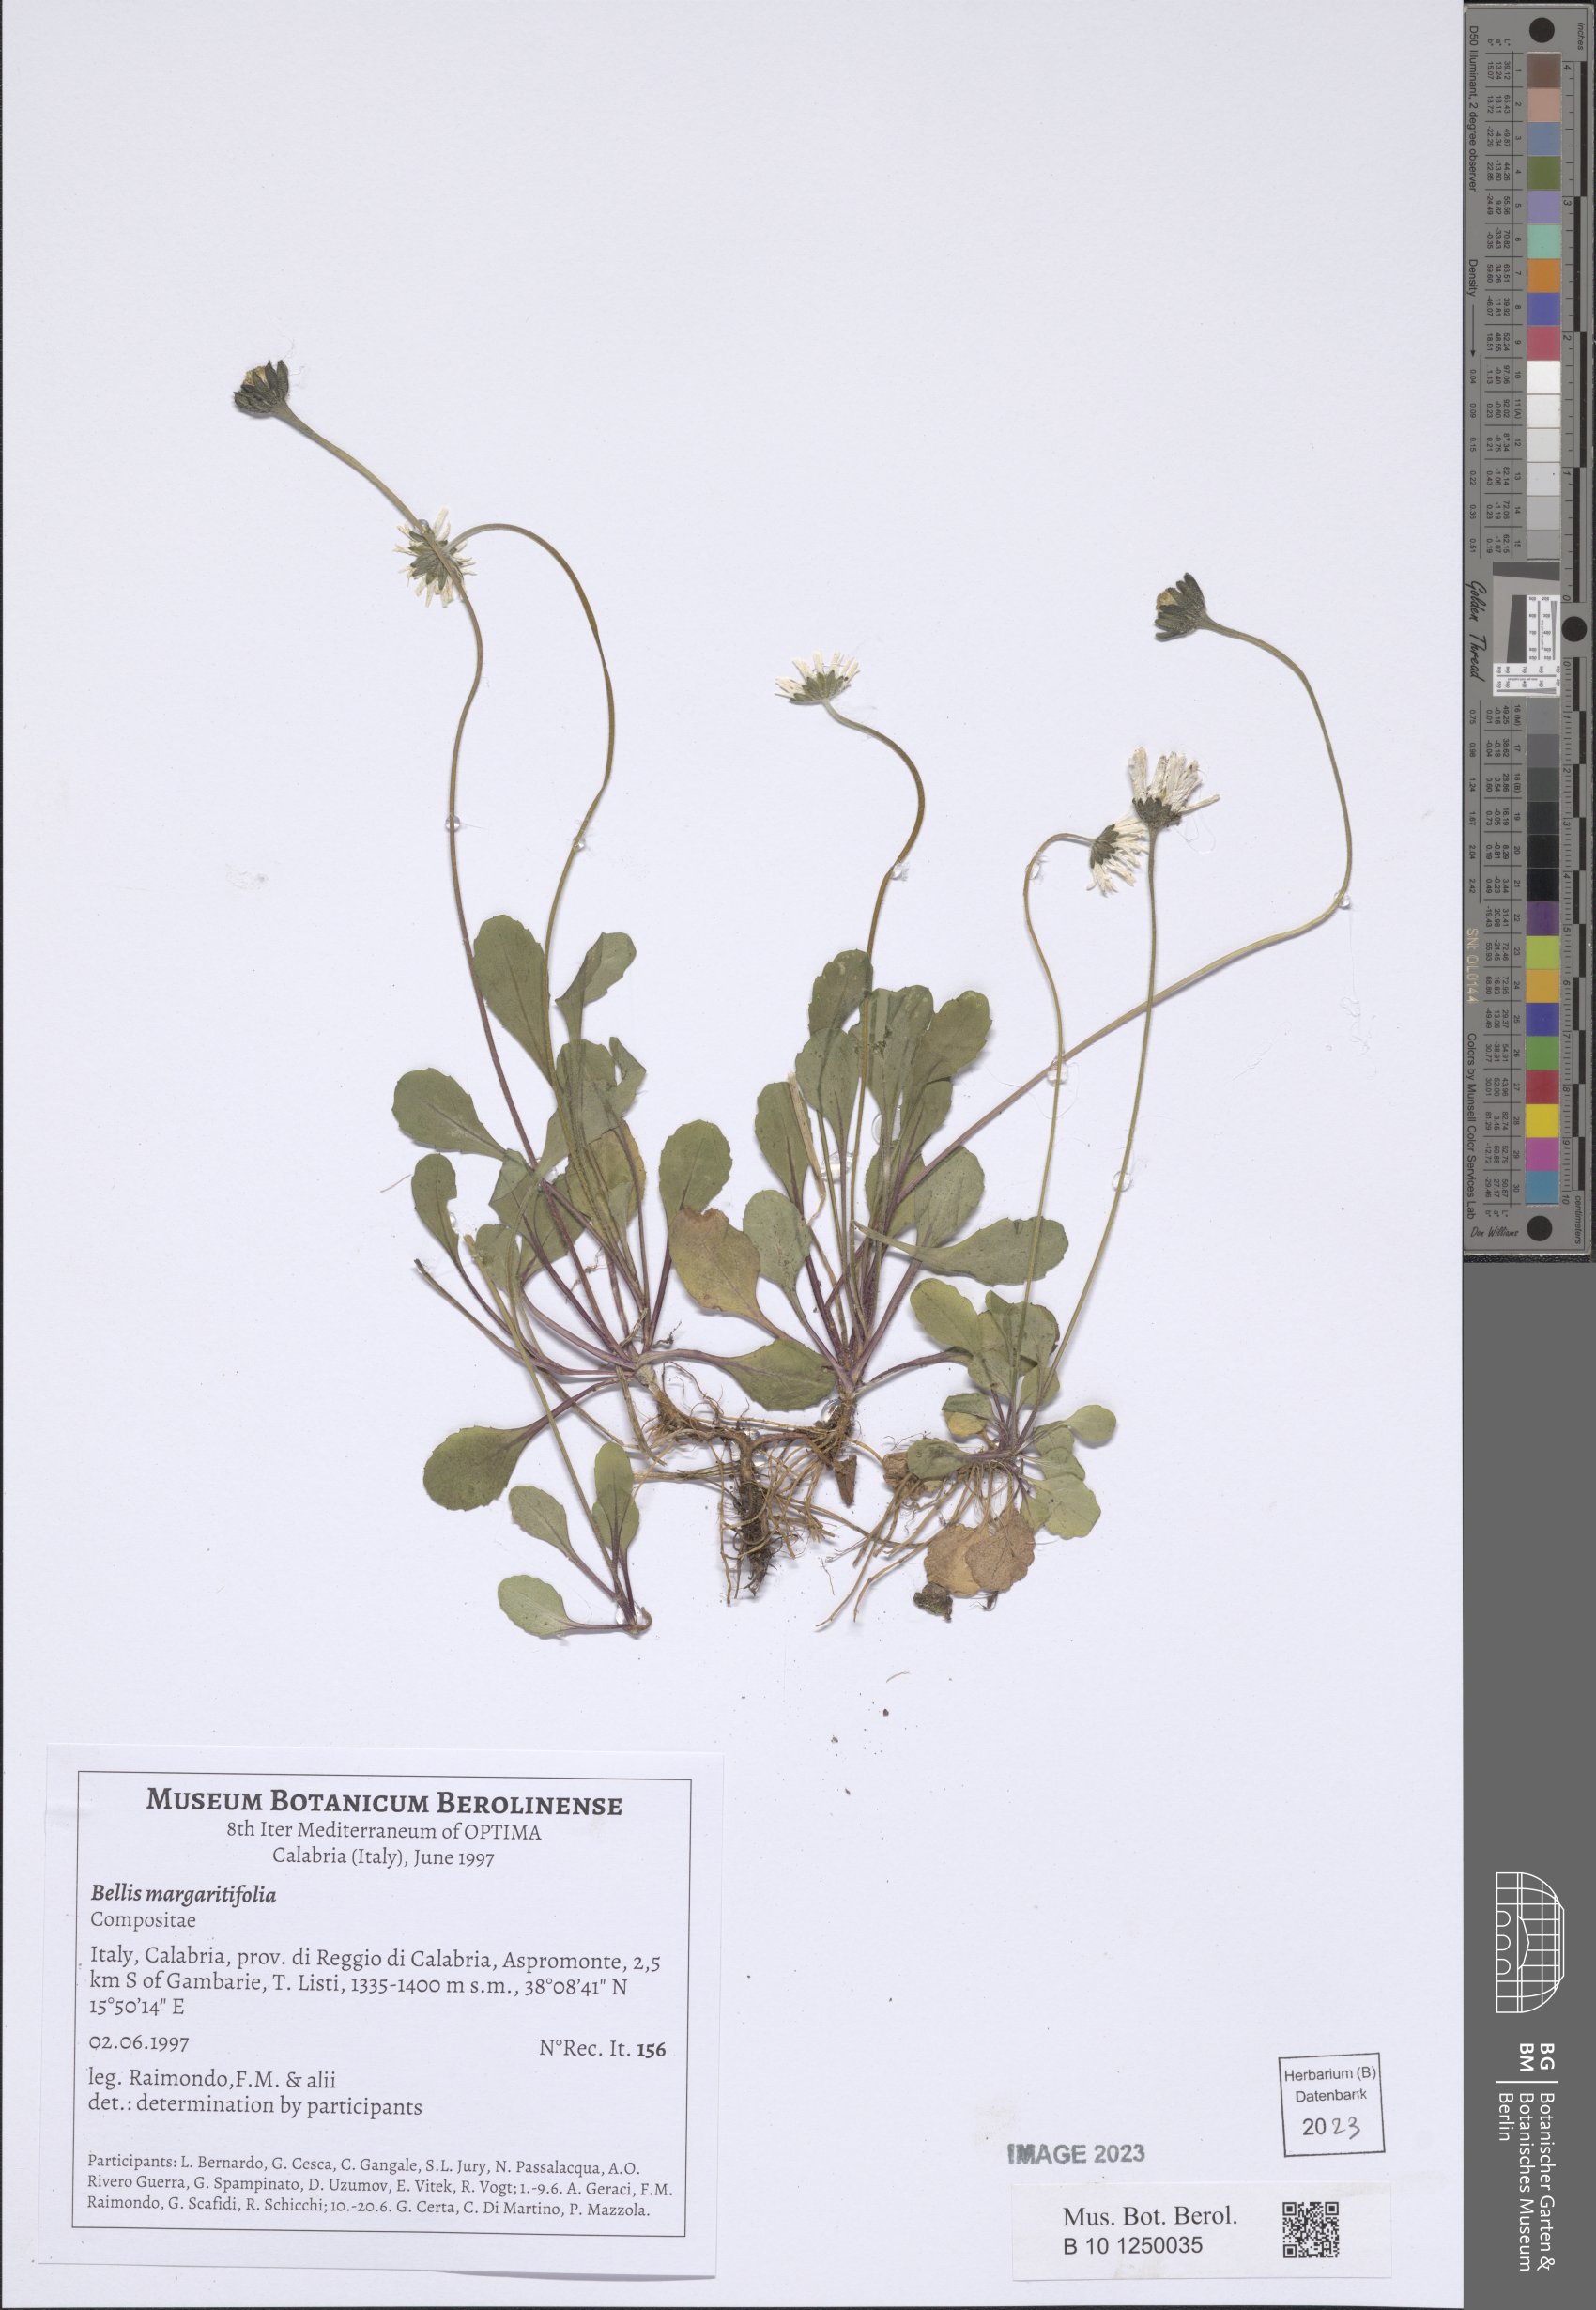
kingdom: Plantae
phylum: Tracheophyta
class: Magnoliopsida
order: Asterales
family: Asteraceae
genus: Bellis
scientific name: Bellis margaritifolia
